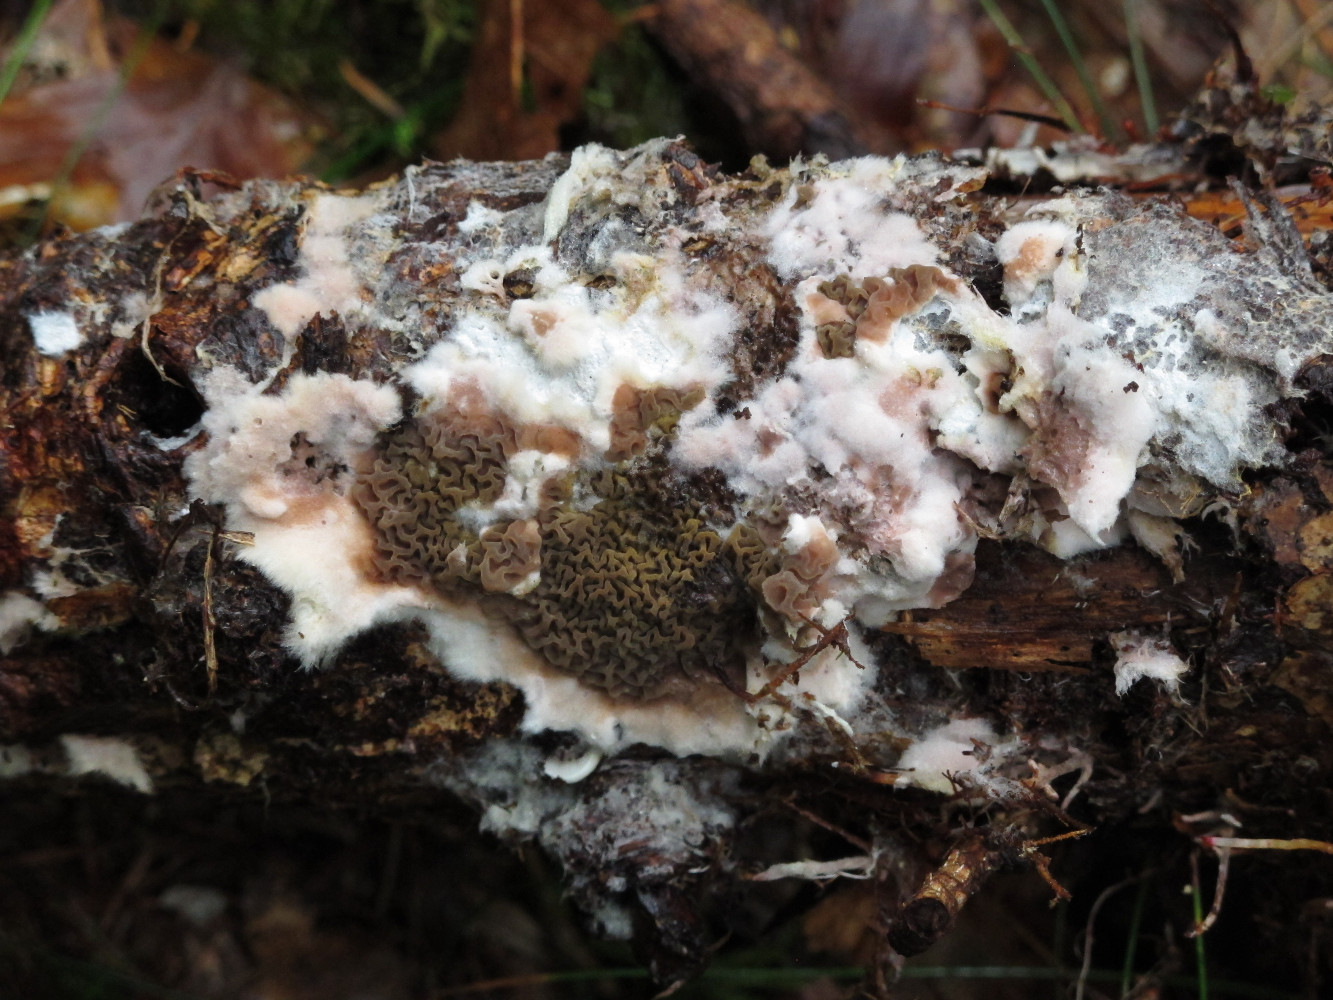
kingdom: Fungi
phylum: Basidiomycota
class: Agaricomycetes
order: Boletales
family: Serpulaceae
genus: Serpula
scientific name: Serpula himantioides
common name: tyndkødet hussvamp
